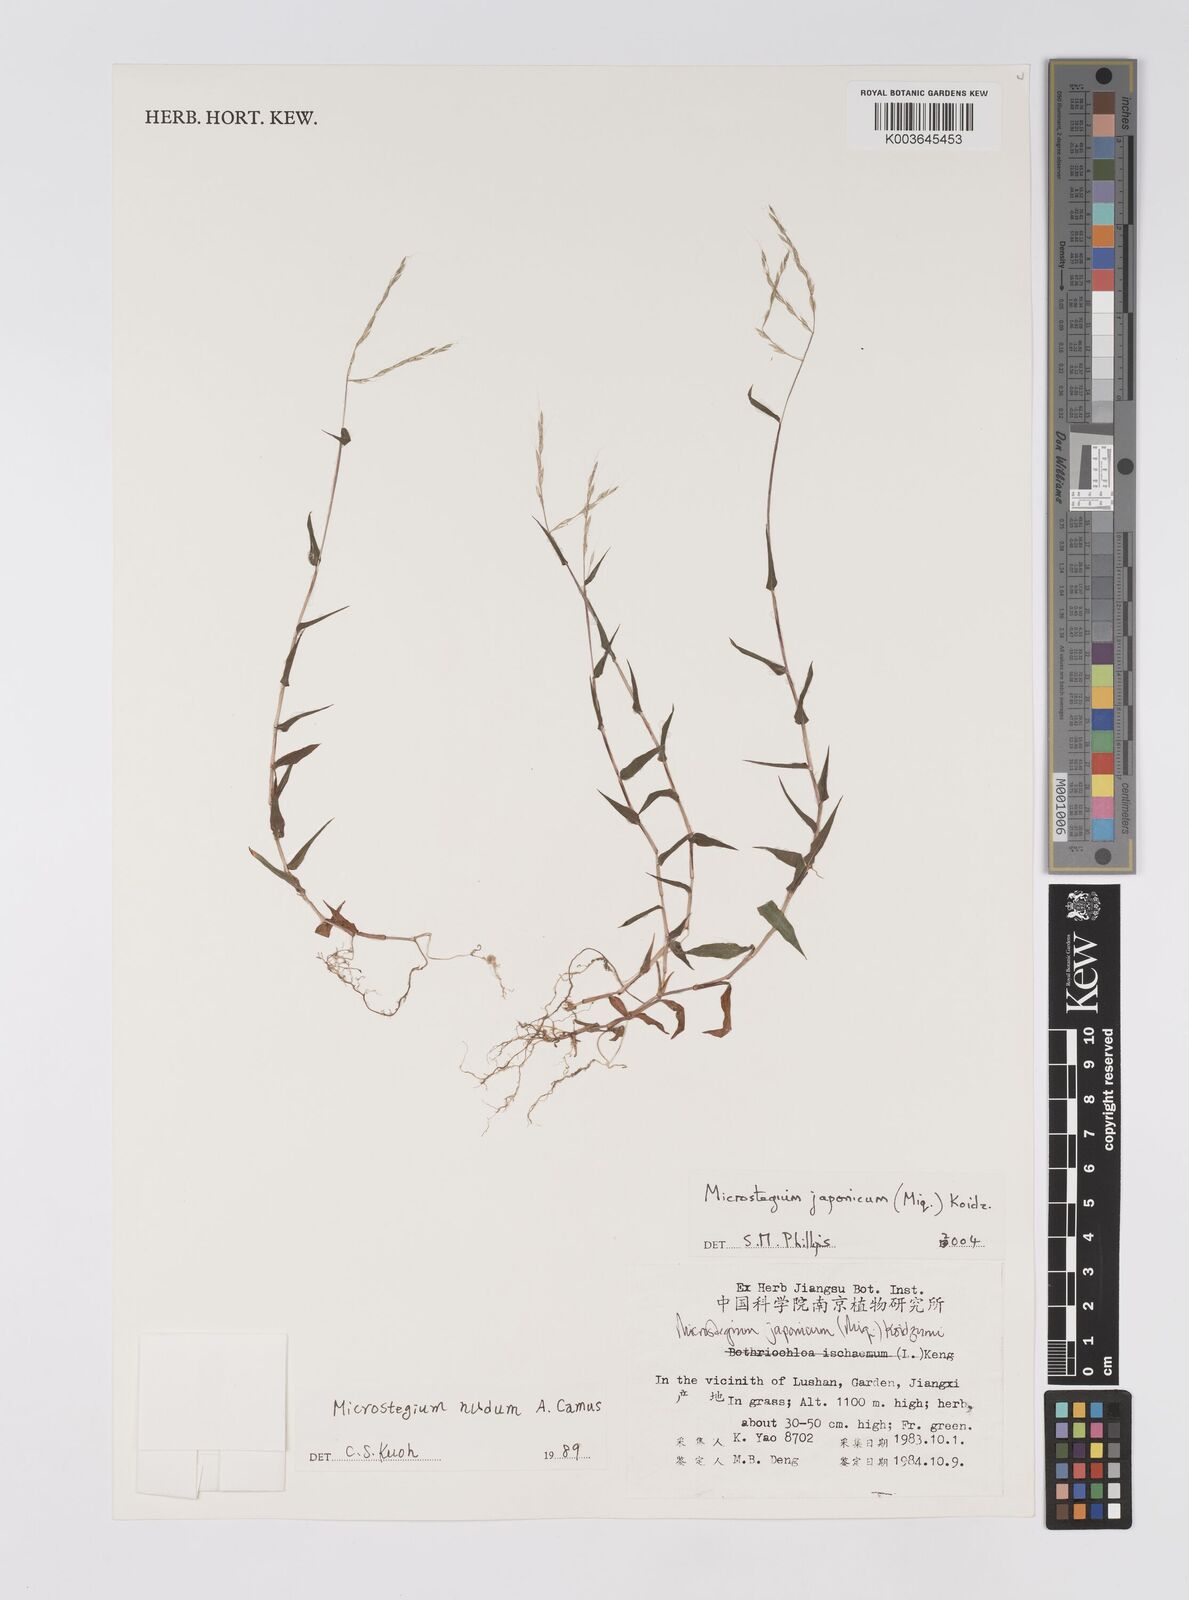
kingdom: Plantae
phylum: Tracheophyta
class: Liliopsida
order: Poales
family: Poaceae
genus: Microstegium
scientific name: Microstegium japonicum
